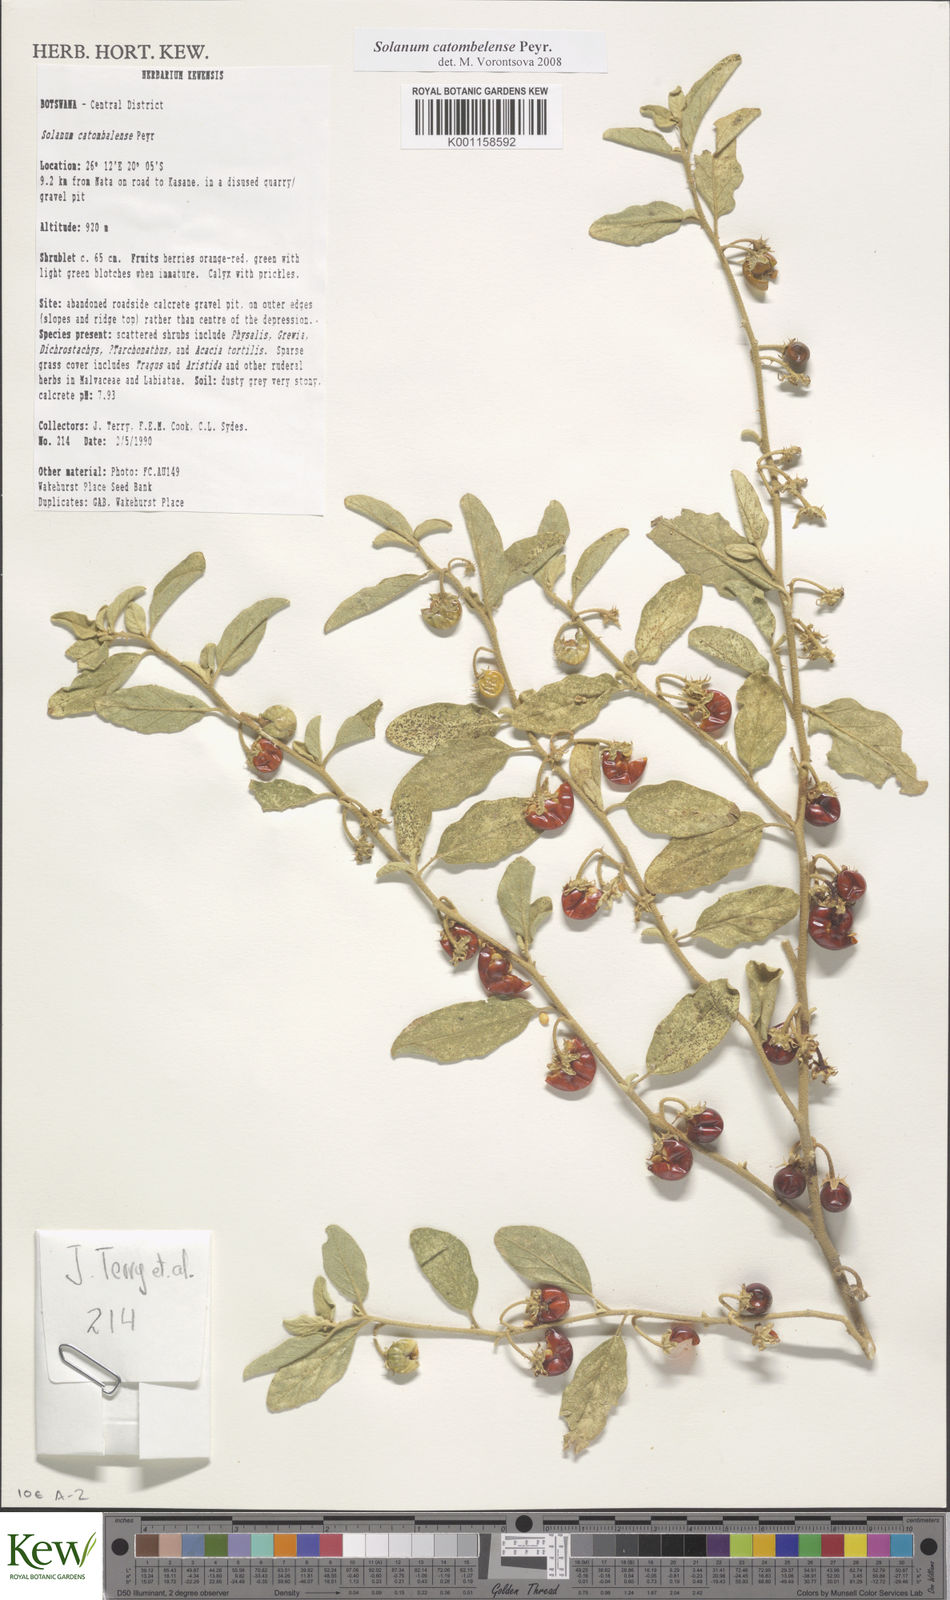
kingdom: Plantae
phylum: Tracheophyta
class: Magnoliopsida
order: Solanales
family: Solanaceae
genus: Solanum
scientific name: Solanum catombelense
